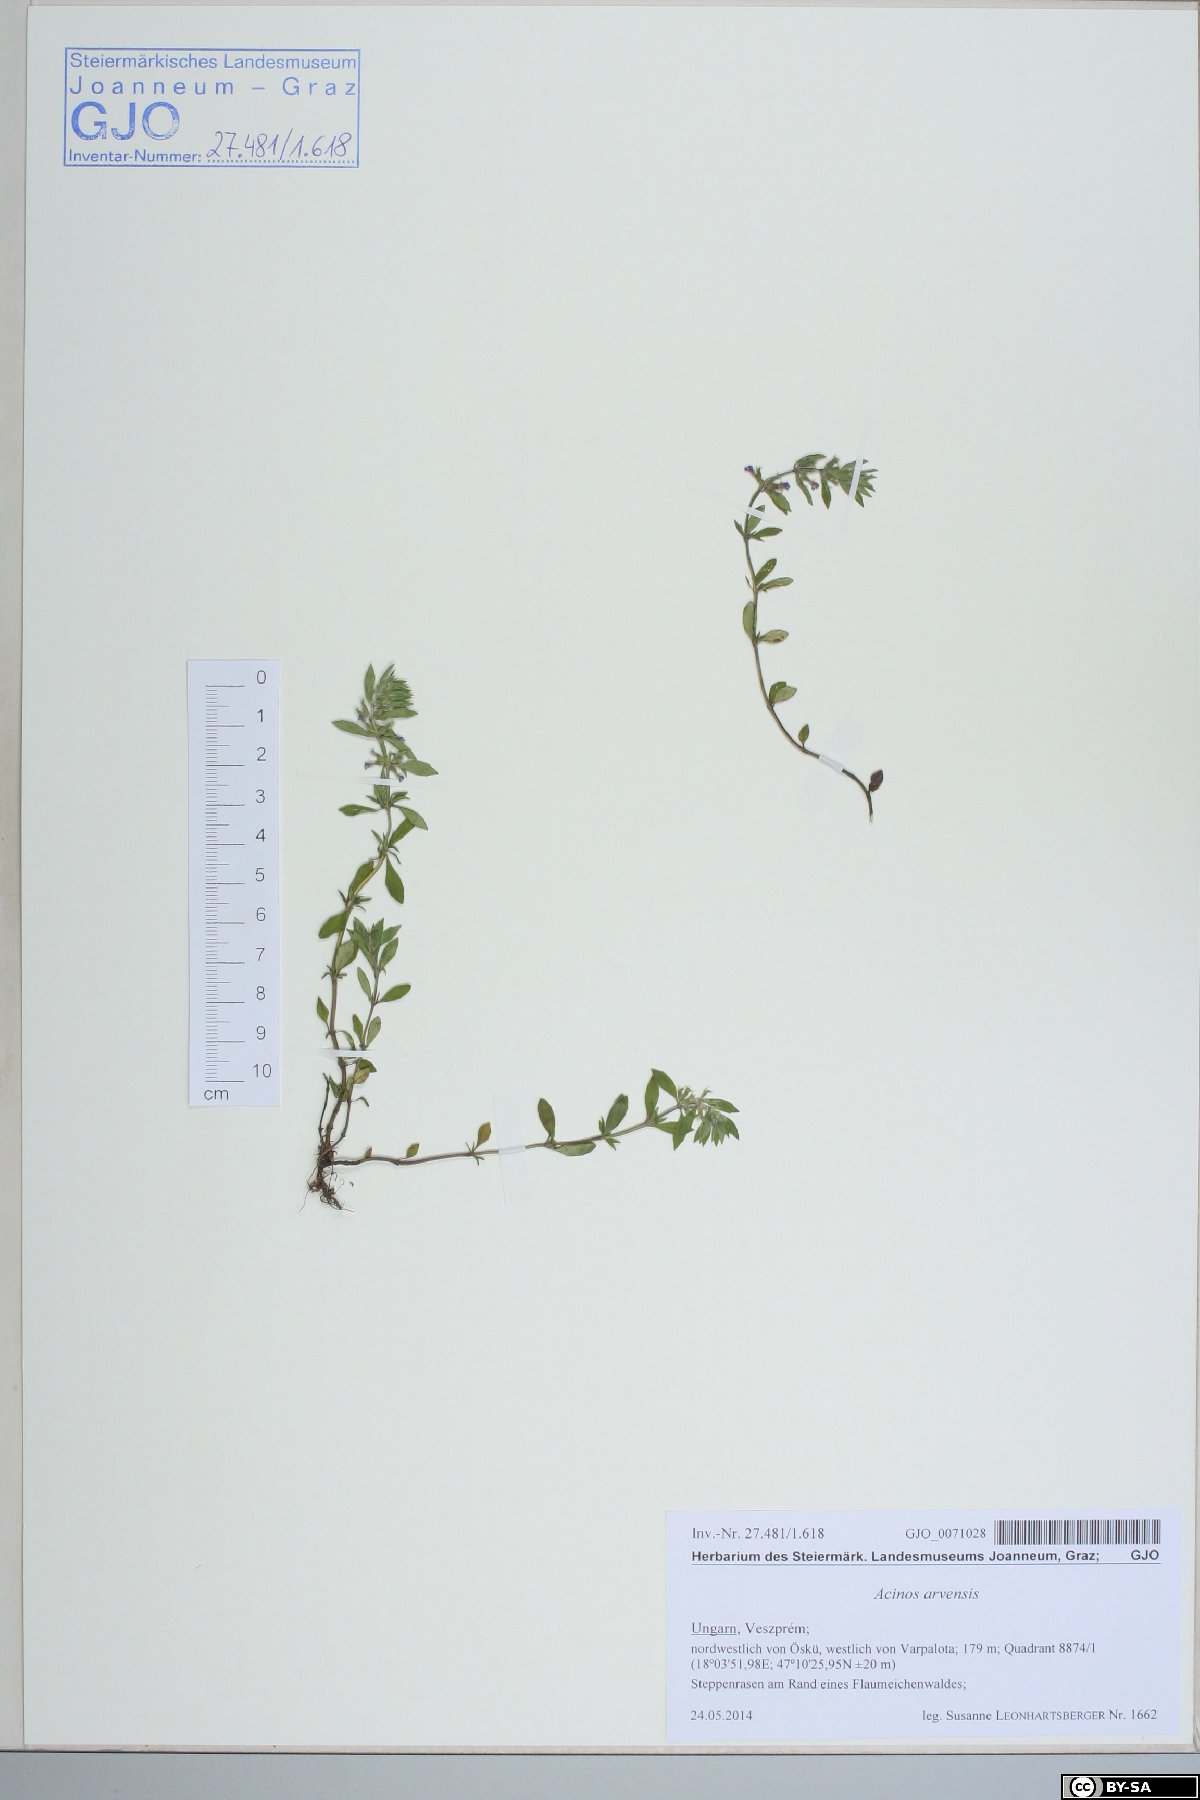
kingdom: Plantae
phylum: Tracheophyta
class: Magnoliopsida
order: Lamiales
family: Lamiaceae
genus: Clinopodium
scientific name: Clinopodium acinos
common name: Basil thyme
